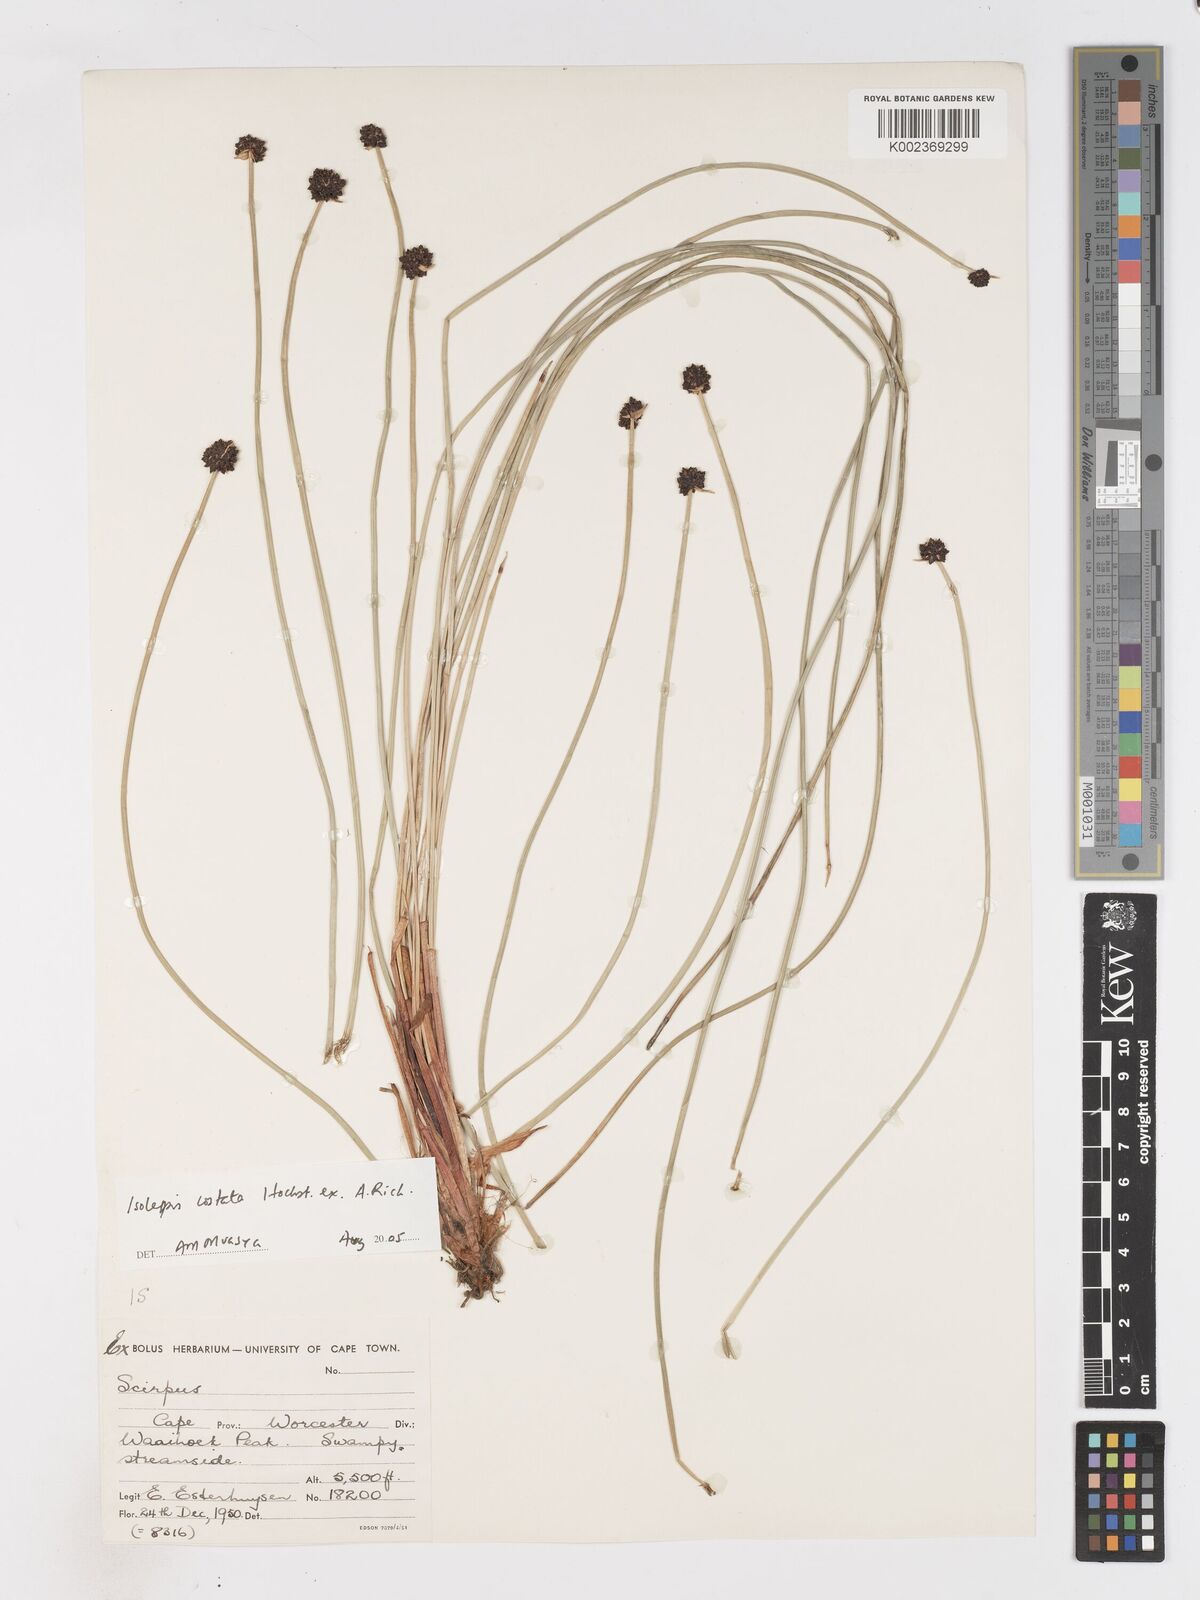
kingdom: Plantae
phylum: Tracheophyta
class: Liliopsida
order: Poales
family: Cyperaceae
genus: Isolepis
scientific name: Isolepis costata
